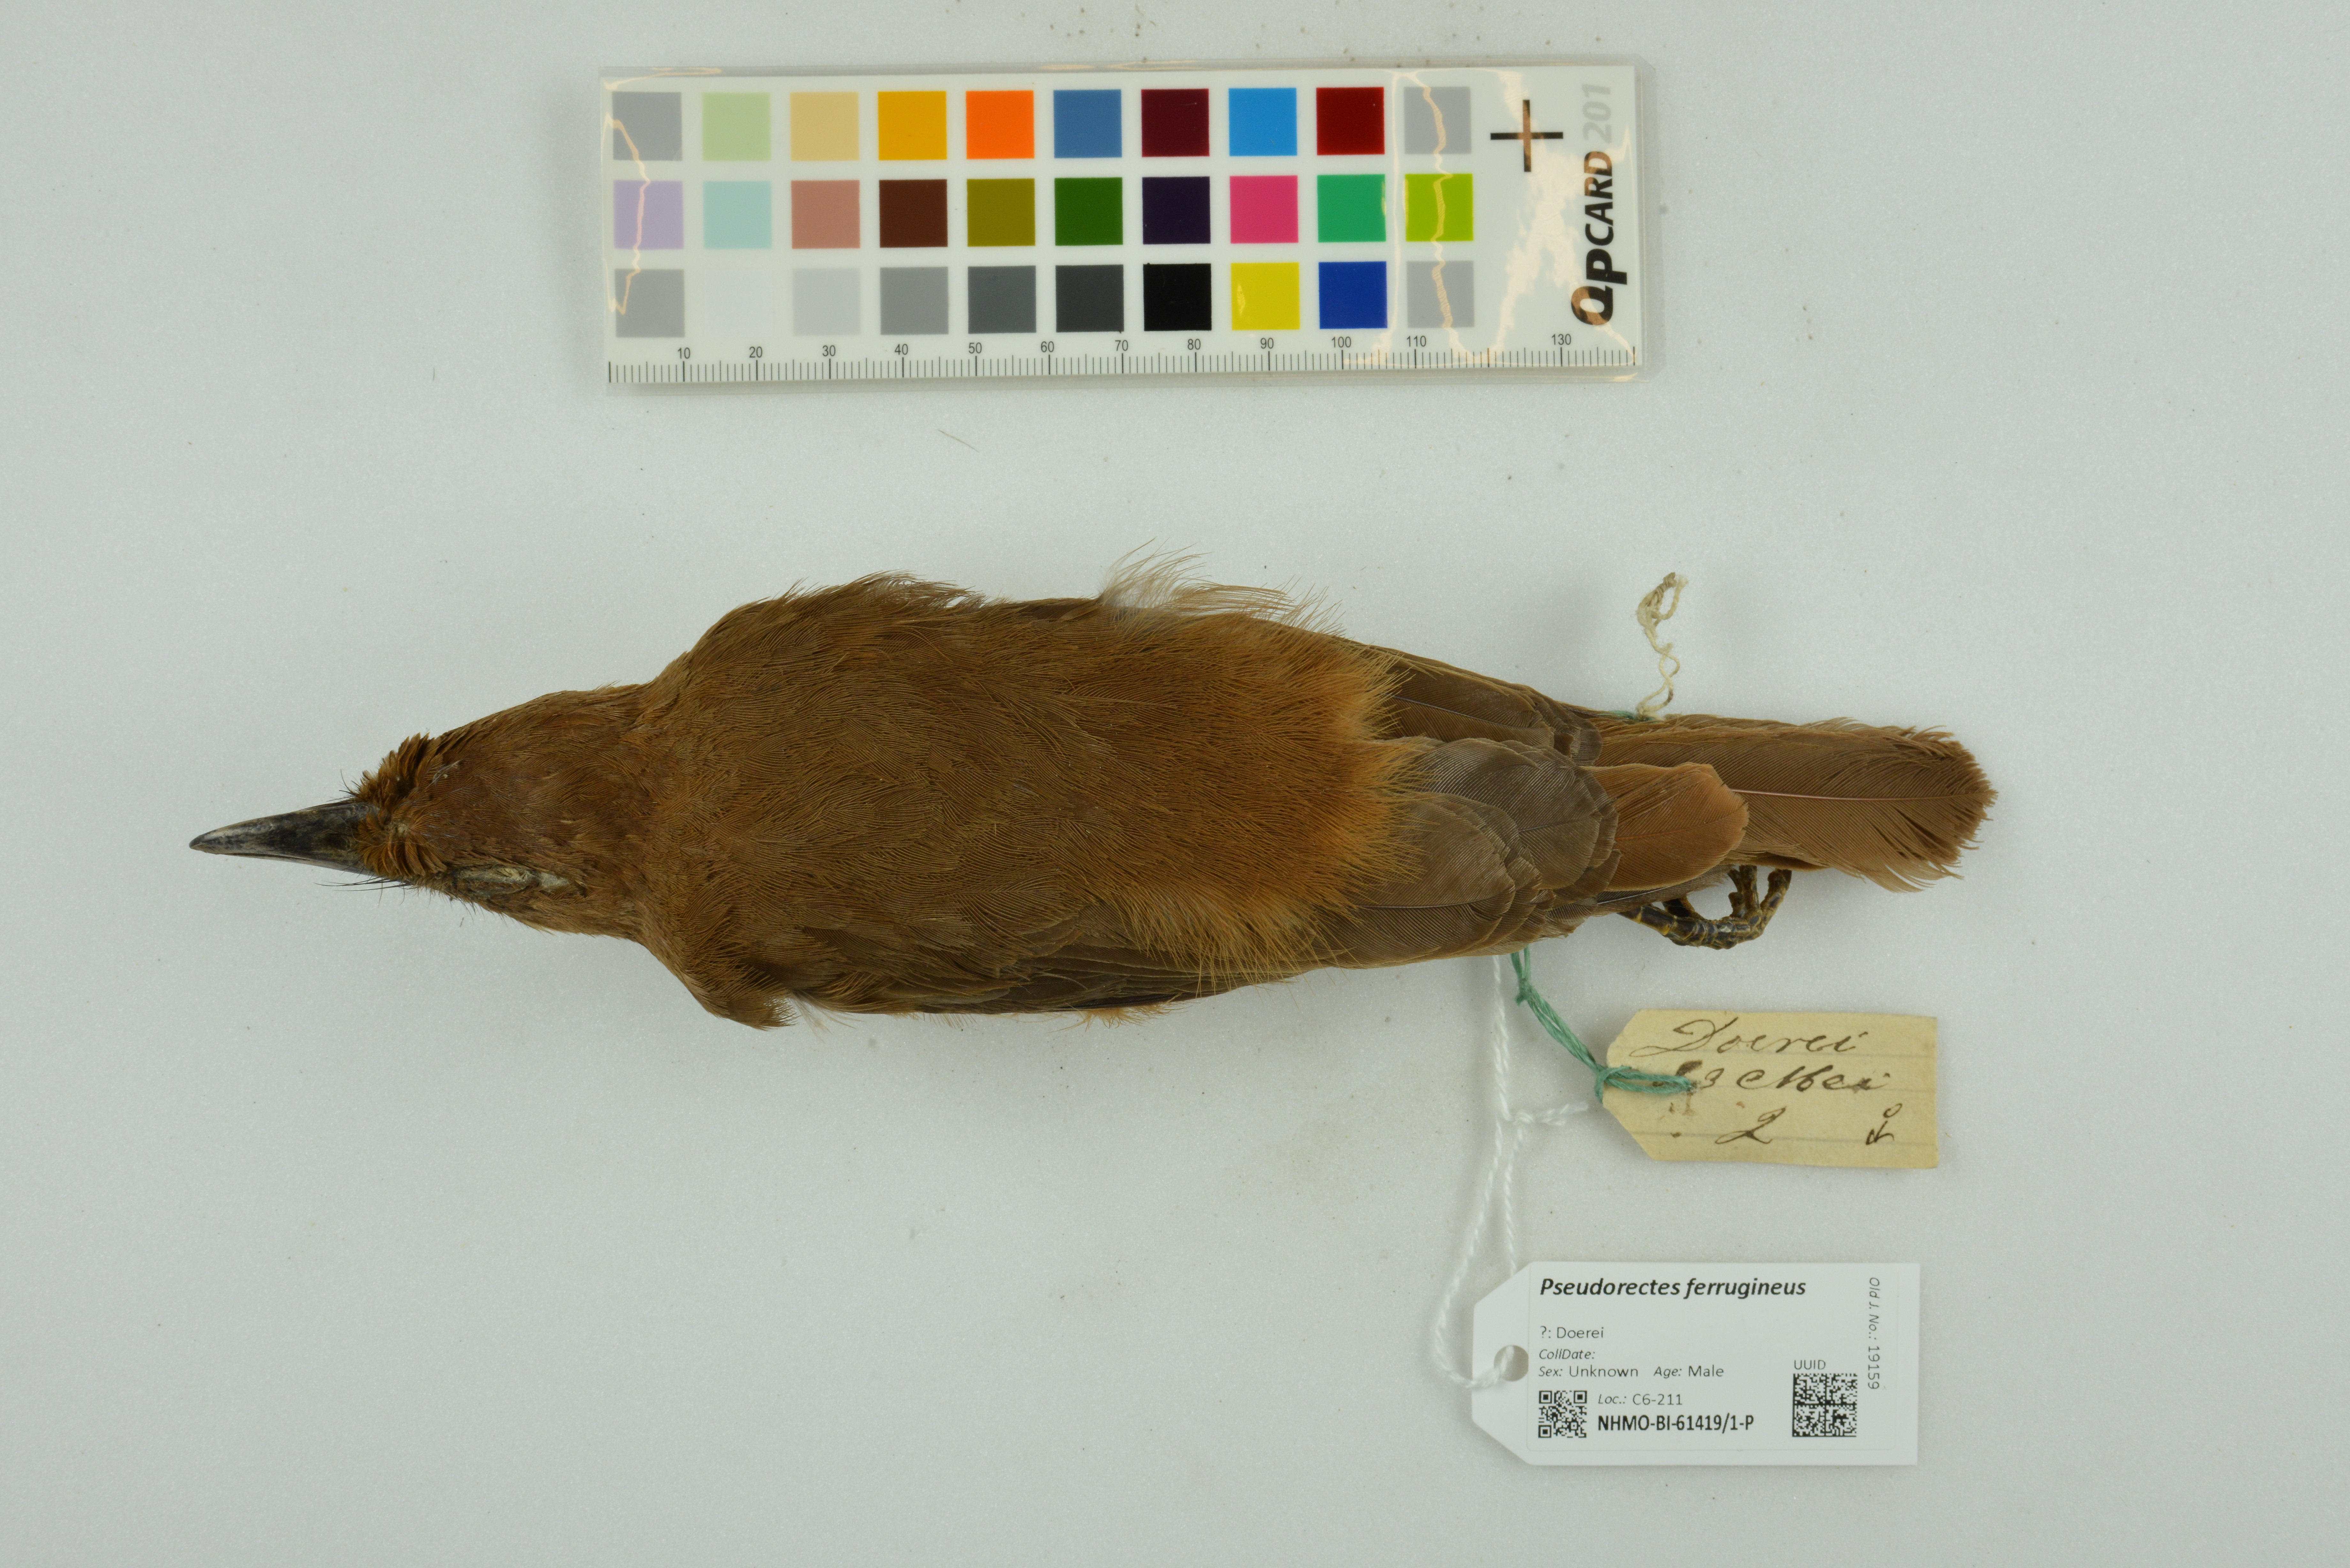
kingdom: Animalia
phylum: Chordata
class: Aves
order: Passeriformes
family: Pachycephalidae
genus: Pseudorectes
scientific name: Pseudorectes ferrugineus
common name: Rusty pitohui
